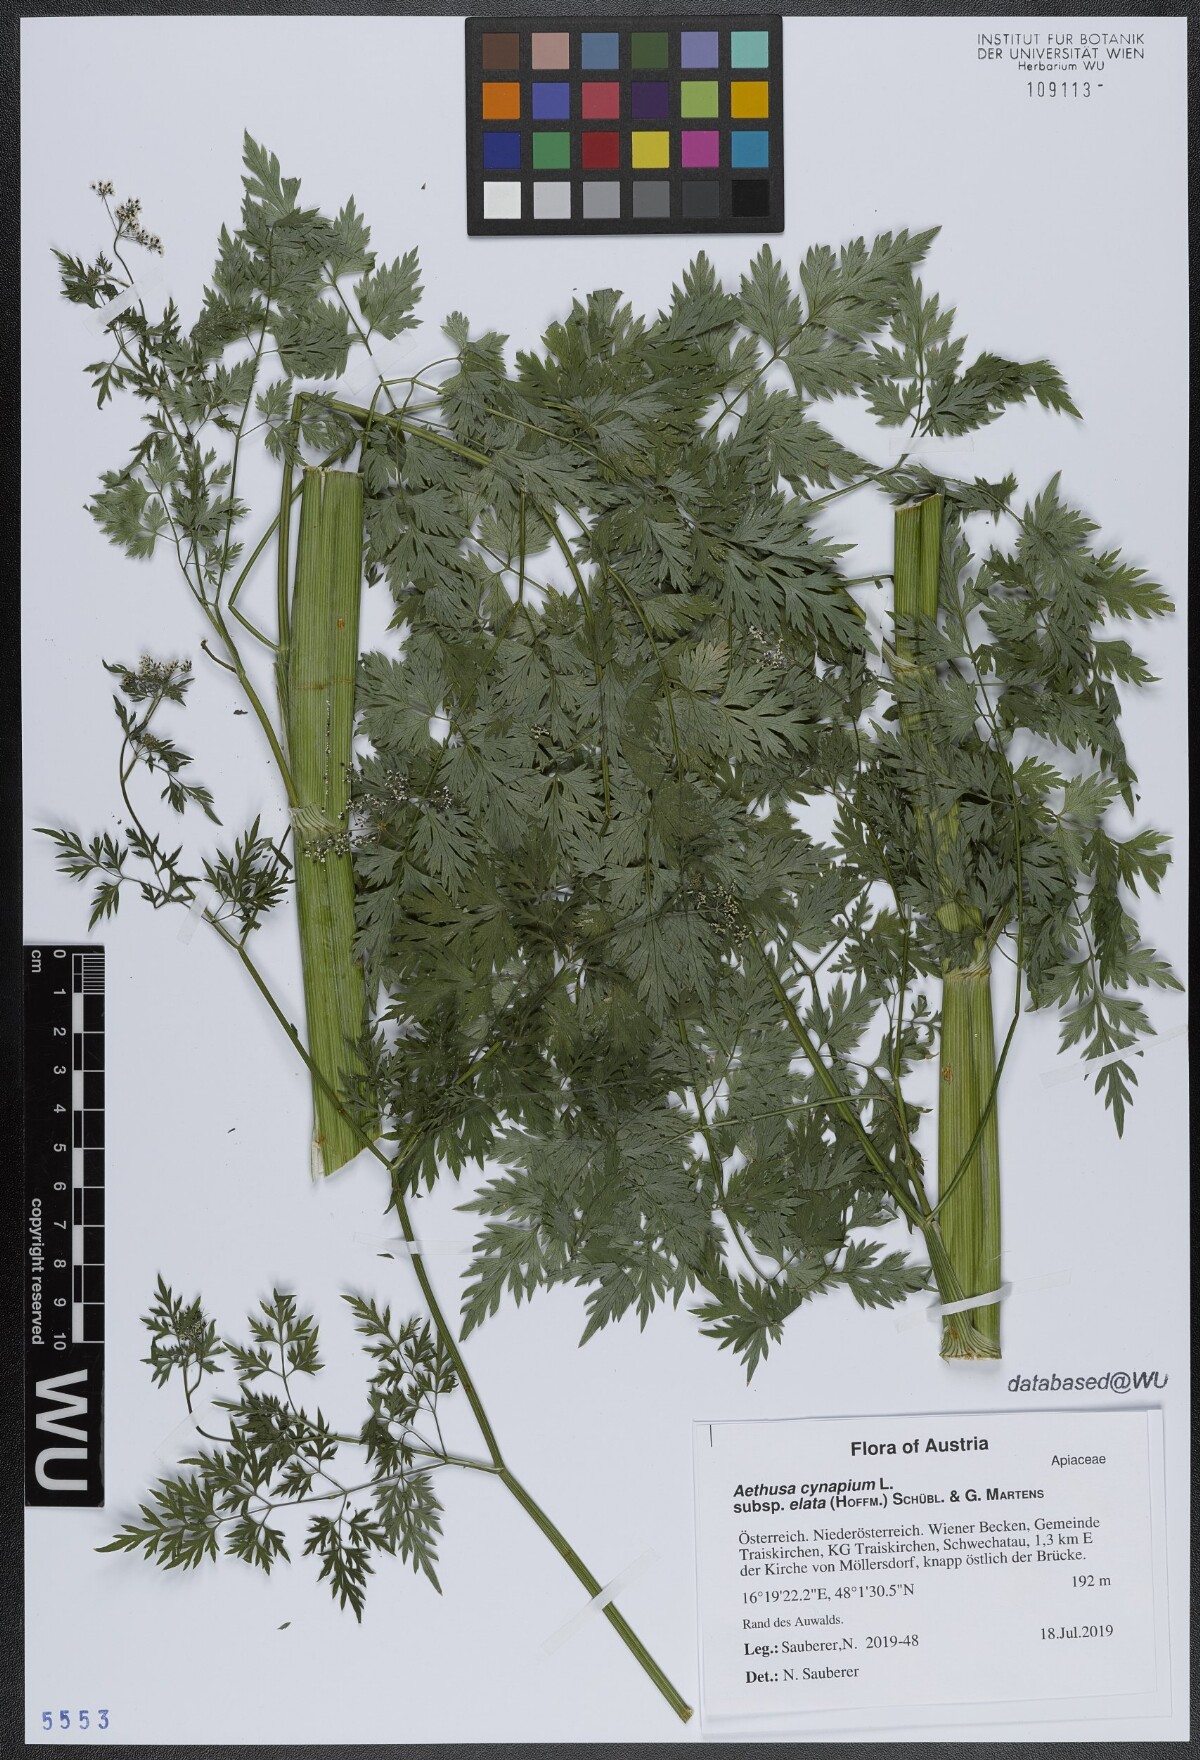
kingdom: Plantae
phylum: Tracheophyta
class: Magnoliopsida
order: Apiales
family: Apiaceae
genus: Aethusa
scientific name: Aethusa cynapium
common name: Fool's parsley
